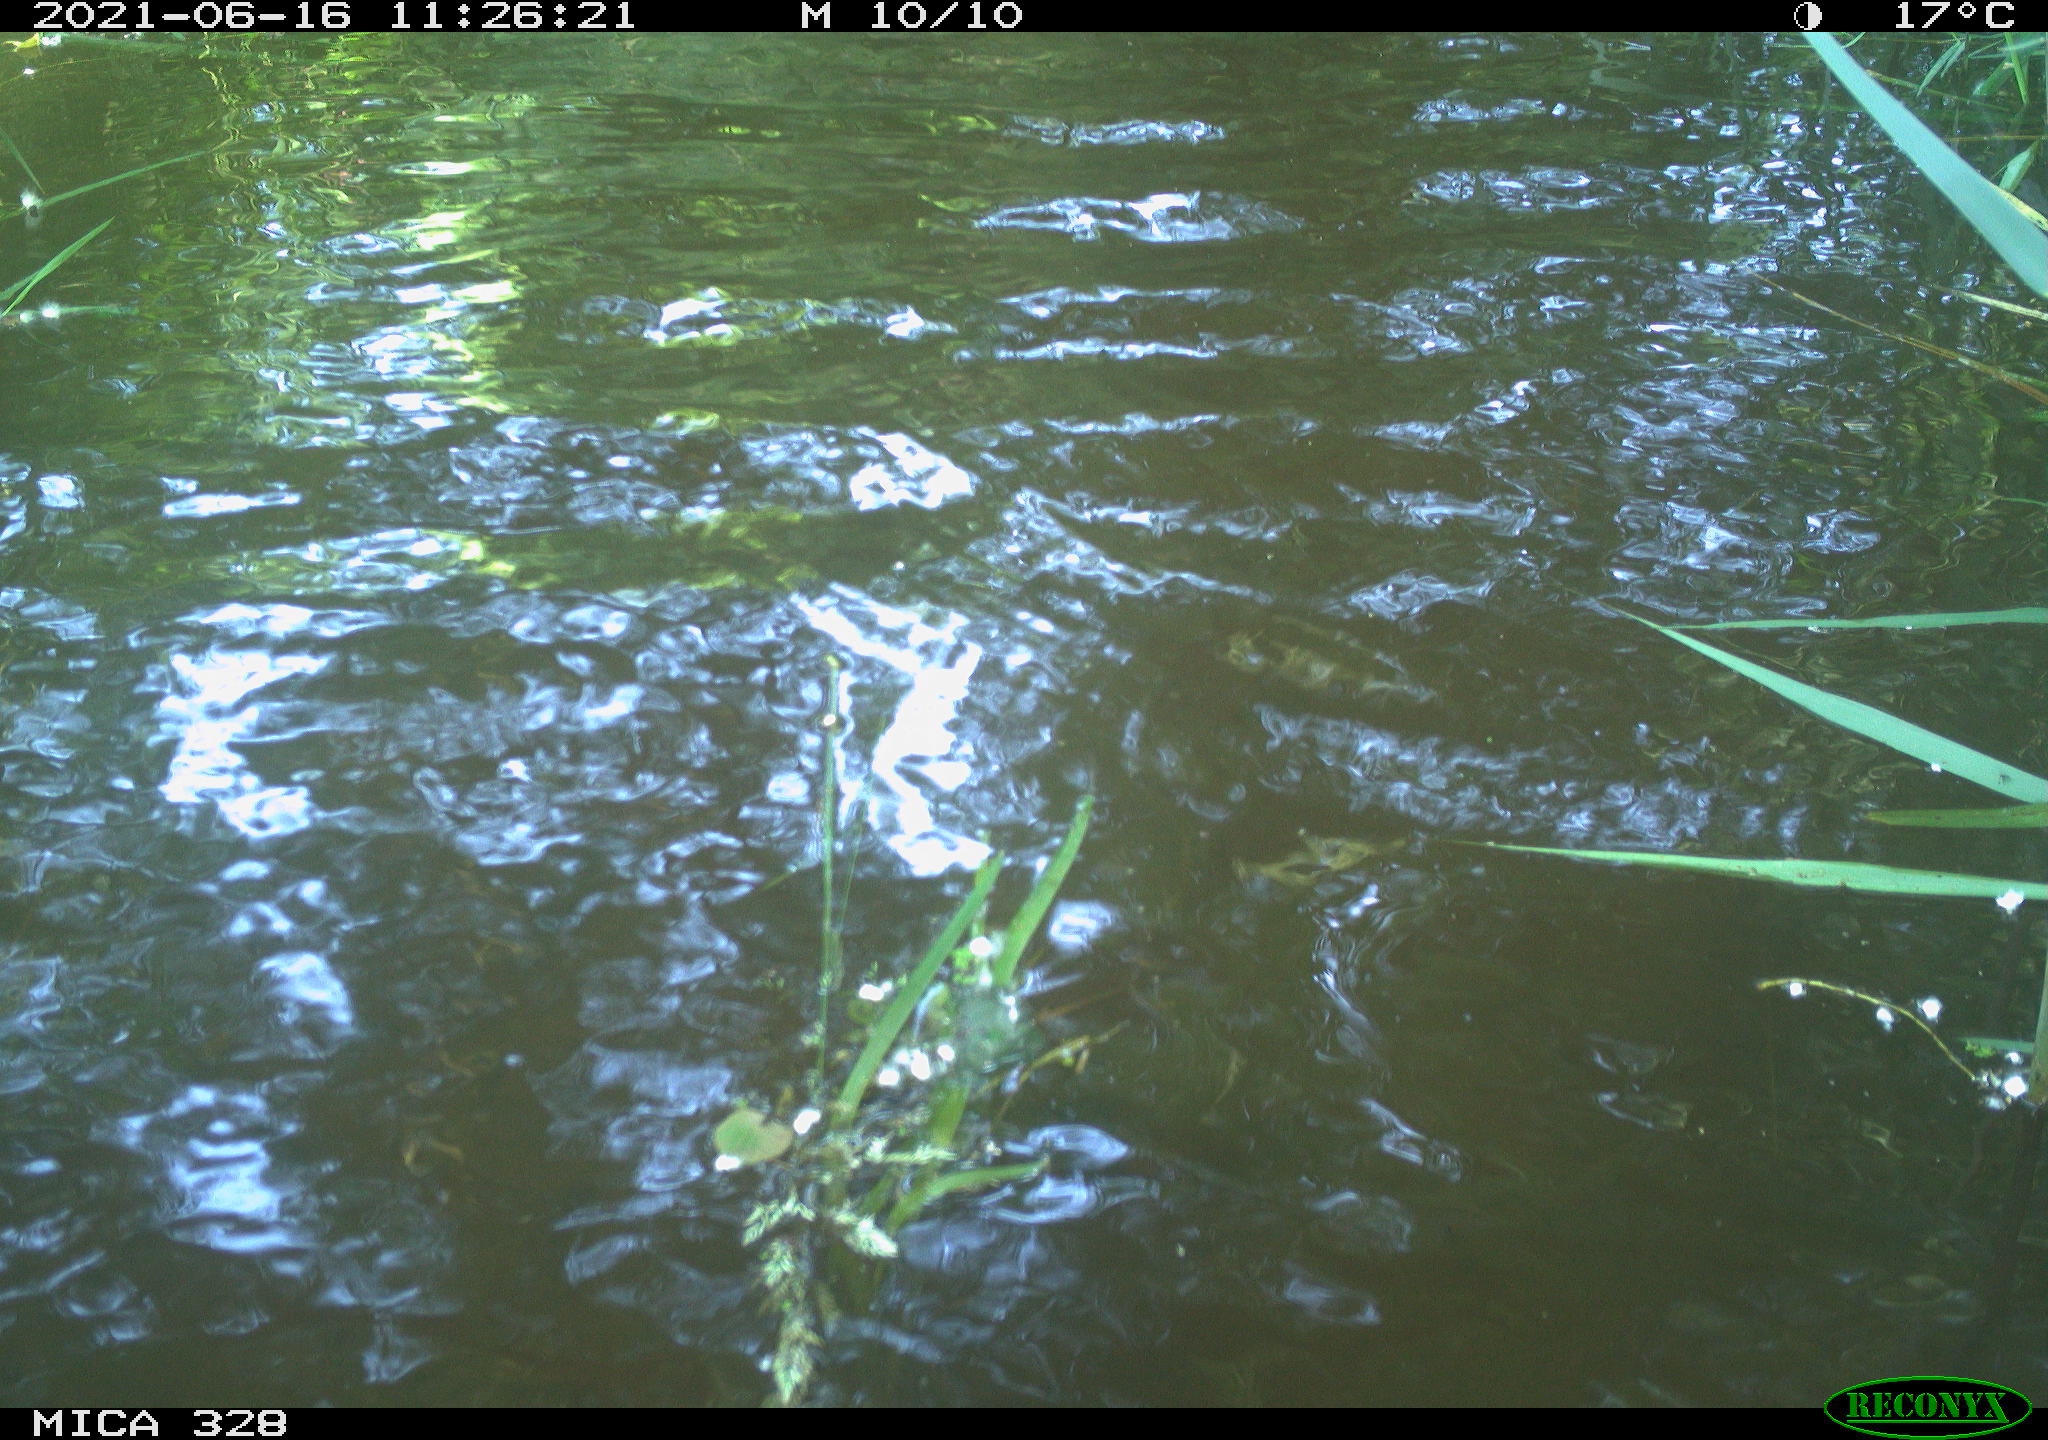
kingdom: Animalia
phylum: Chordata
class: Aves
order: Anseriformes
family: Anatidae
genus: Aix
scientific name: Aix galericulata
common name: Mandarin duck
